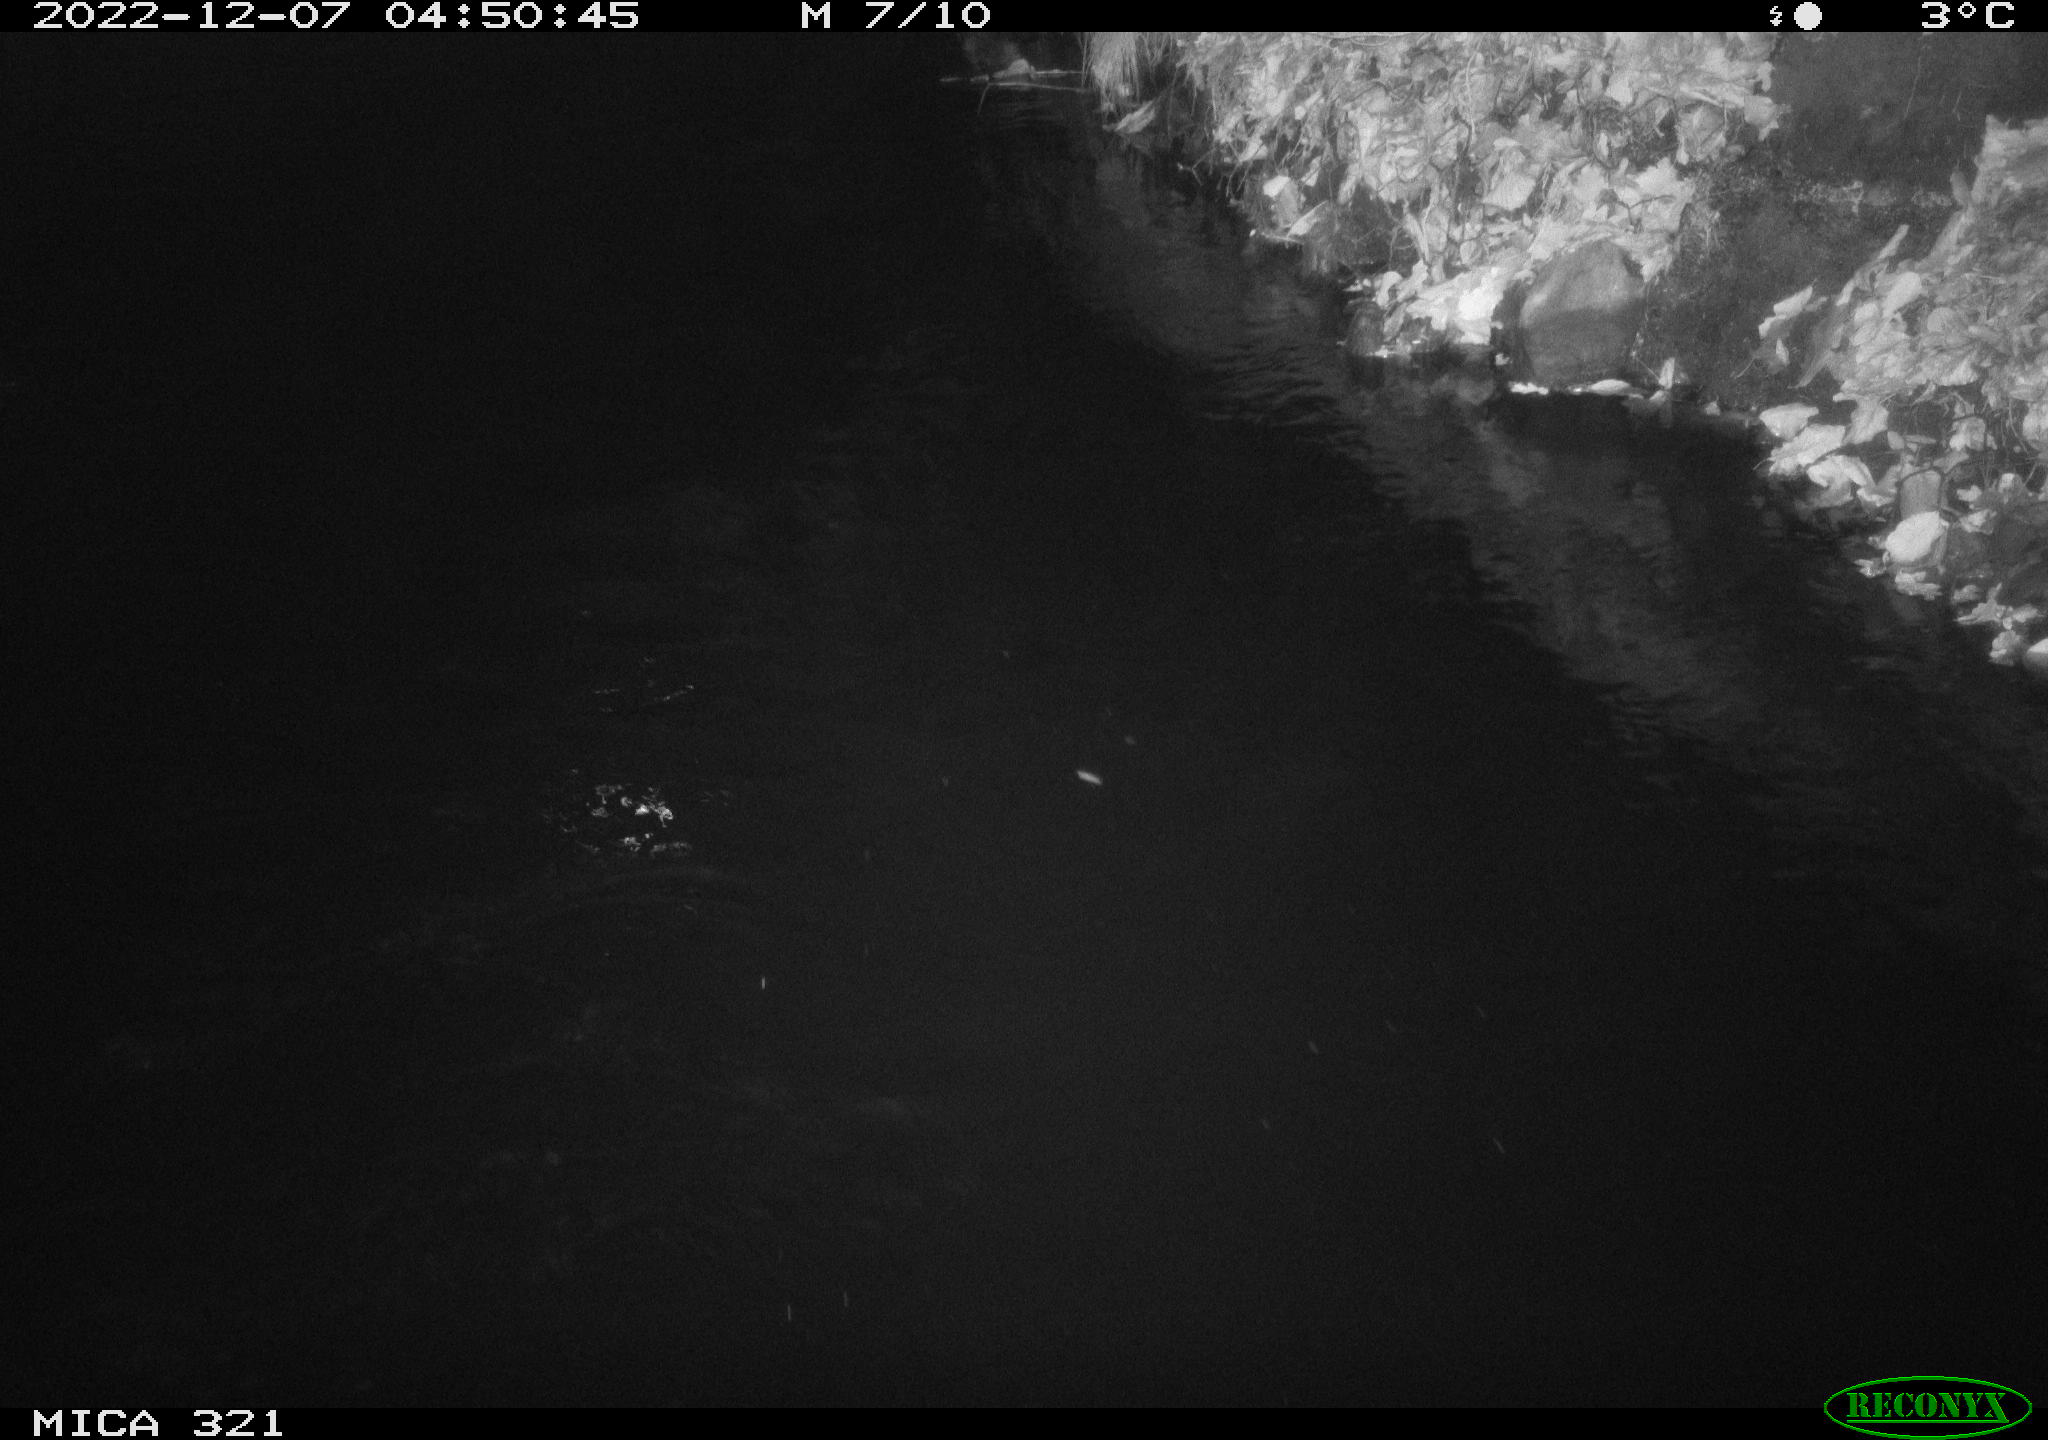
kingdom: Animalia
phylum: Chordata
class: Aves
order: Anseriformes
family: Anatidae
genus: Anas
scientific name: Anas
